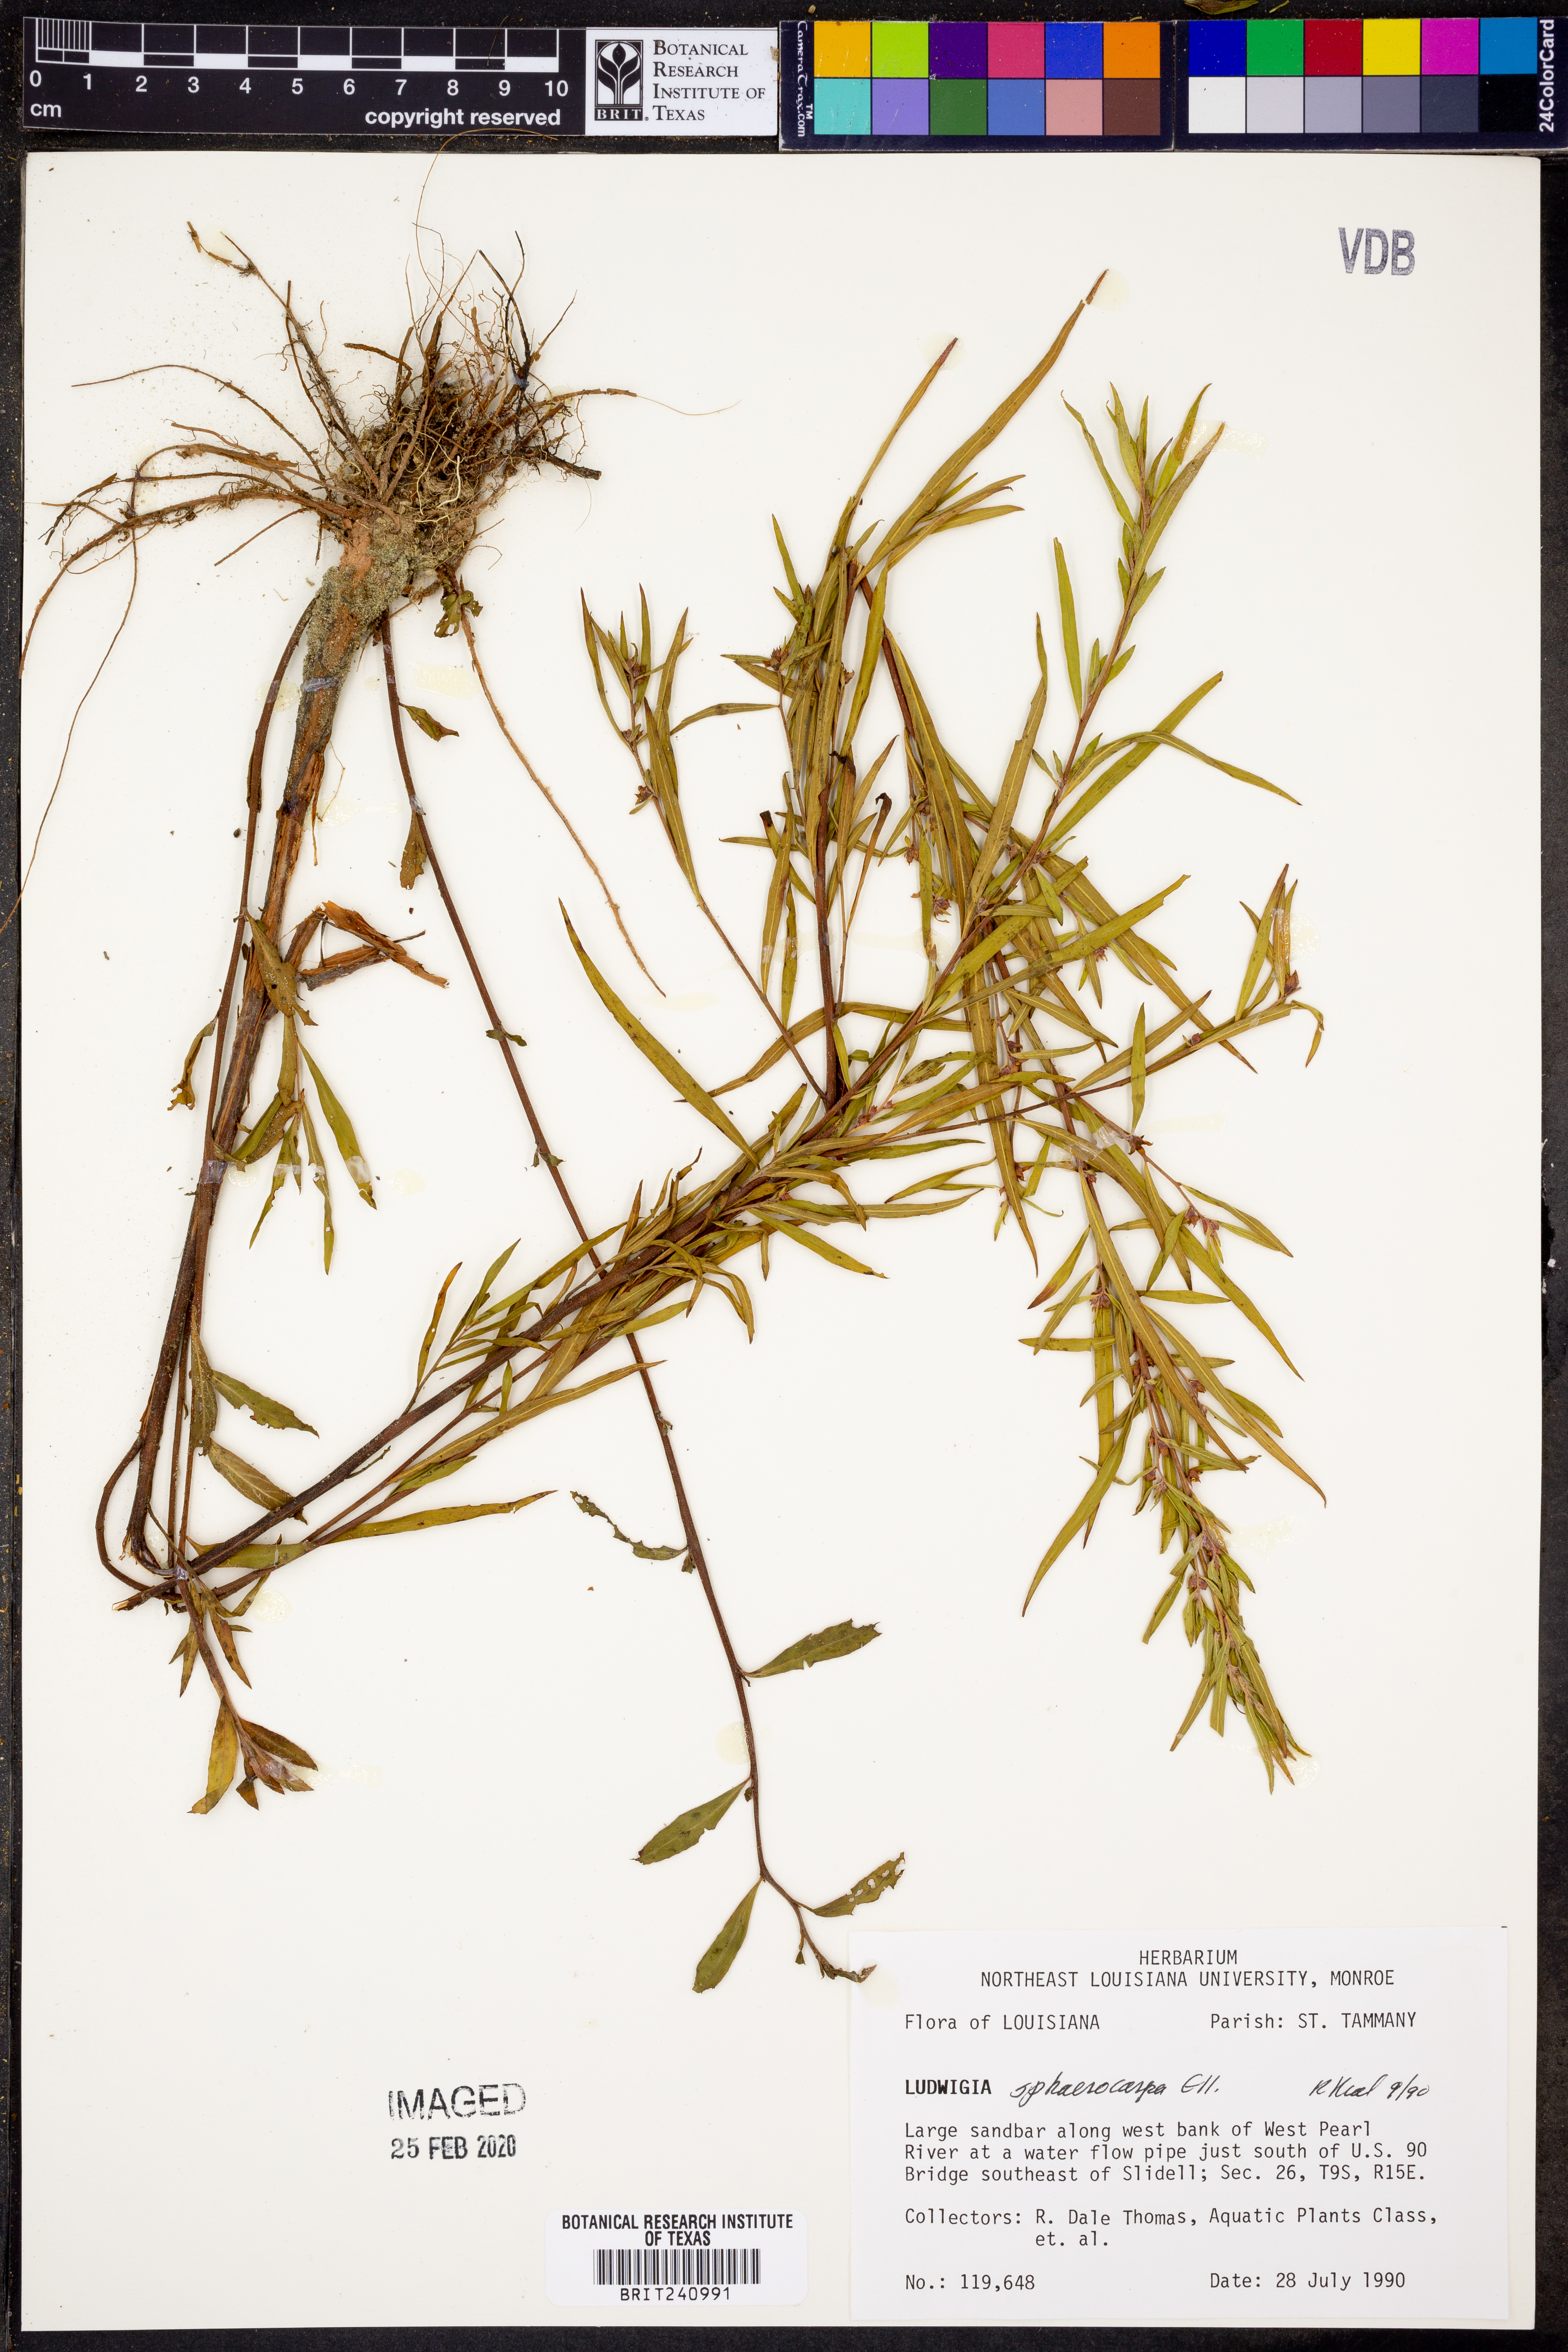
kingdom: Plantae
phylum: Tracheophyta
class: Magnoliopsida
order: Myrtales
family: Onagraceae
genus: Ludwigia
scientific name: Ludwigia sphaerocarpa
